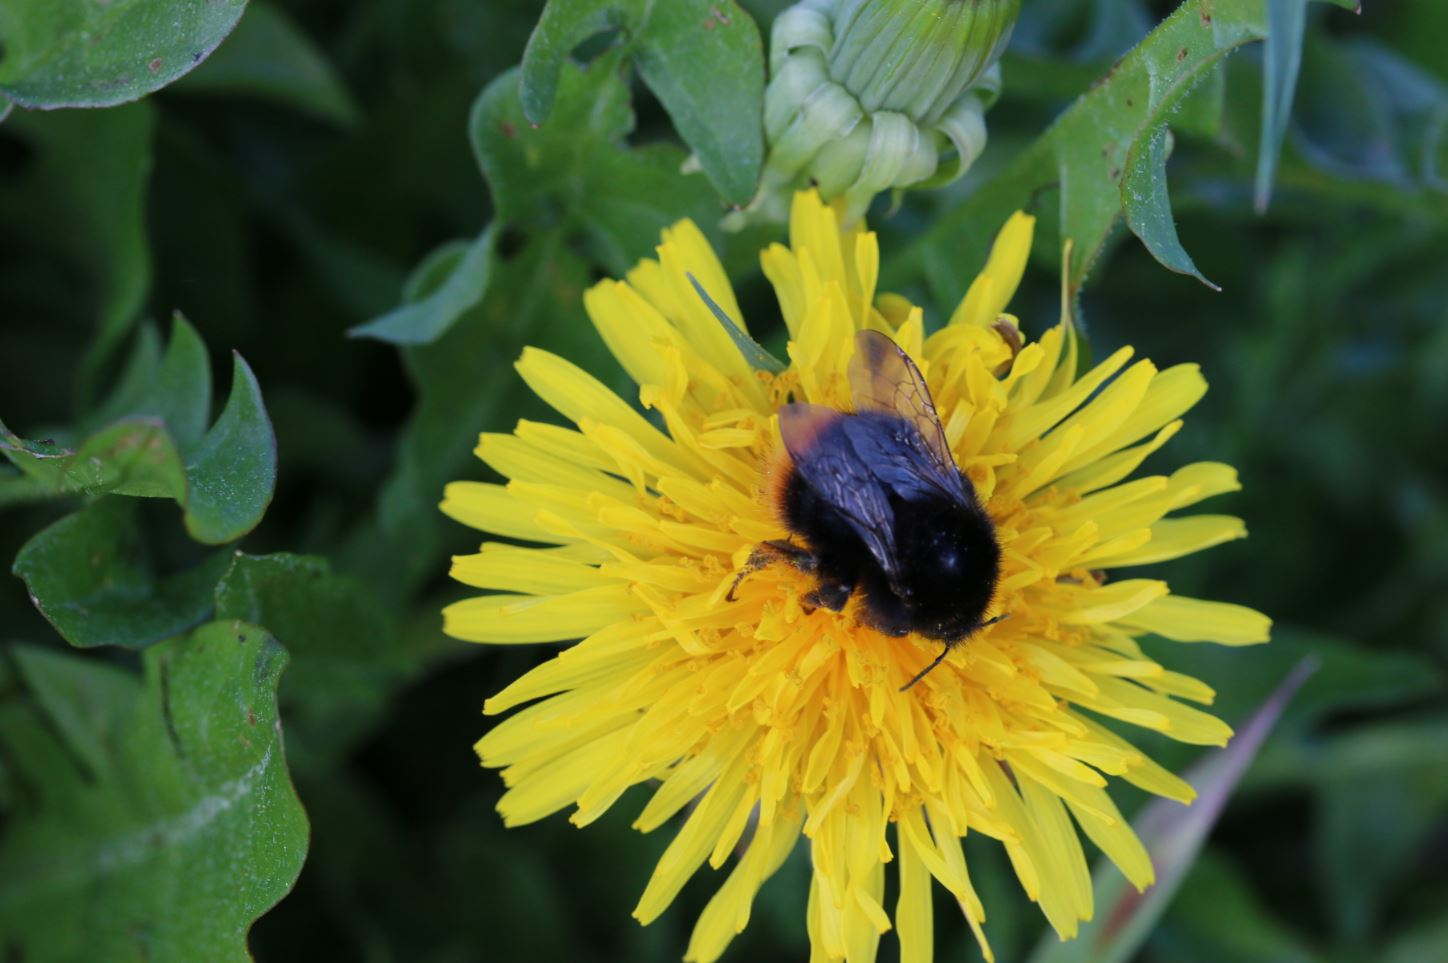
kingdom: Animalia
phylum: Arthropoda
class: Insecta
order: Hymenoptera
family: Apidae
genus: Bombus
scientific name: Bombus ruderarius
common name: Red-shanked carder-bee
